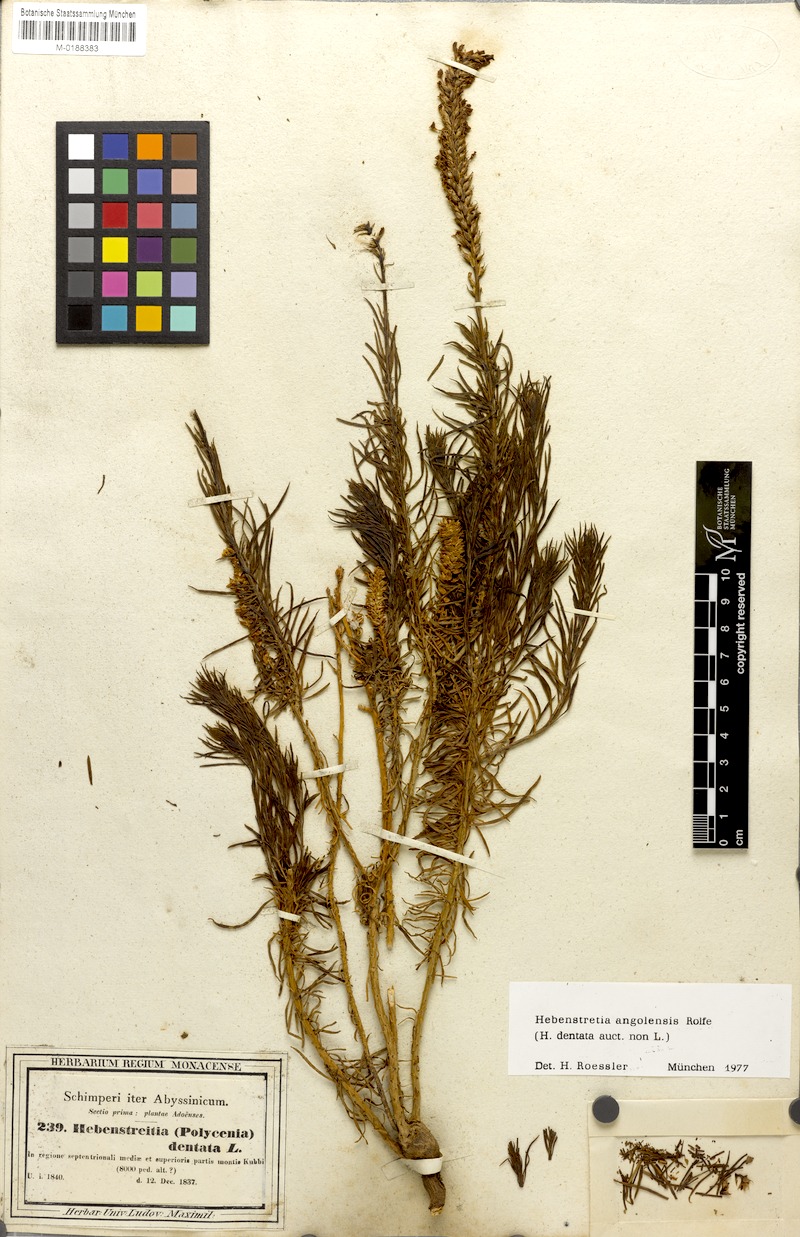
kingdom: Plantae
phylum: Tracheophyta
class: Magnoliopsida
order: Lamiales
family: Scrophulariaceae
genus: Hebenstretia
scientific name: Hebenstretia angolensis
